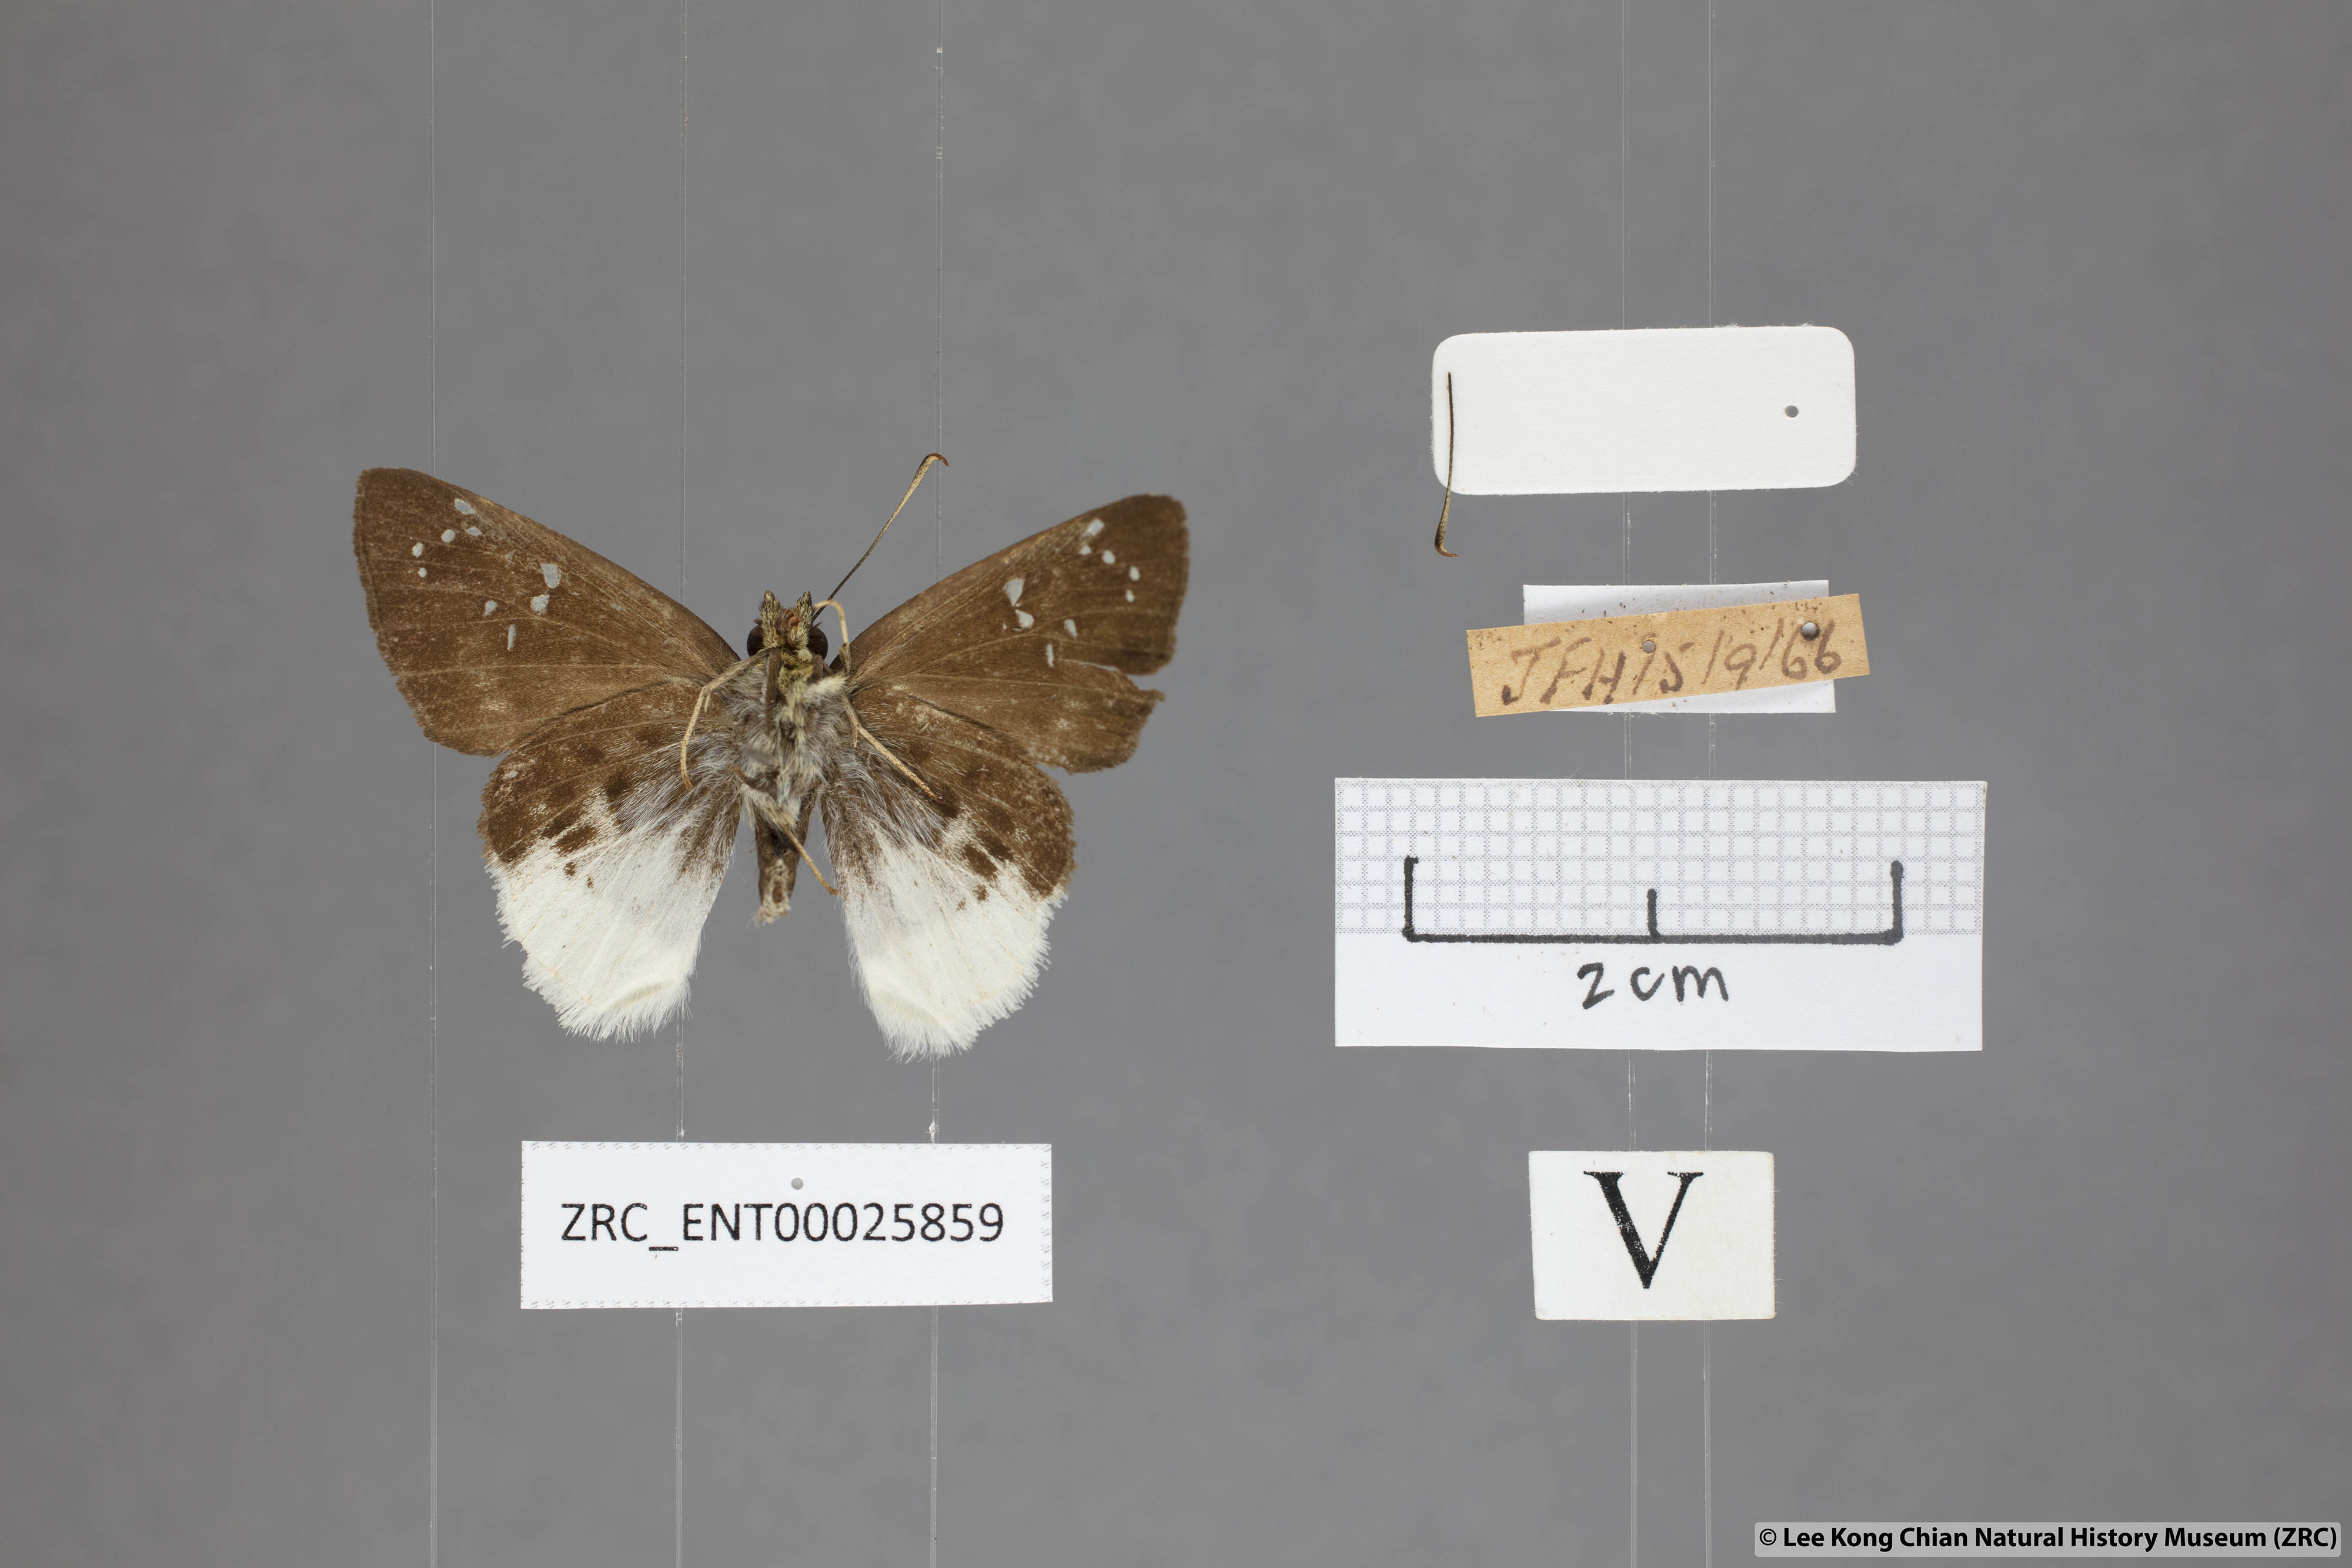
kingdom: Animalia
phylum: Arthropoda
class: Insecta
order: Lepidoptera
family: Hesperiidae
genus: Darpa
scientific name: Darpa pterica
